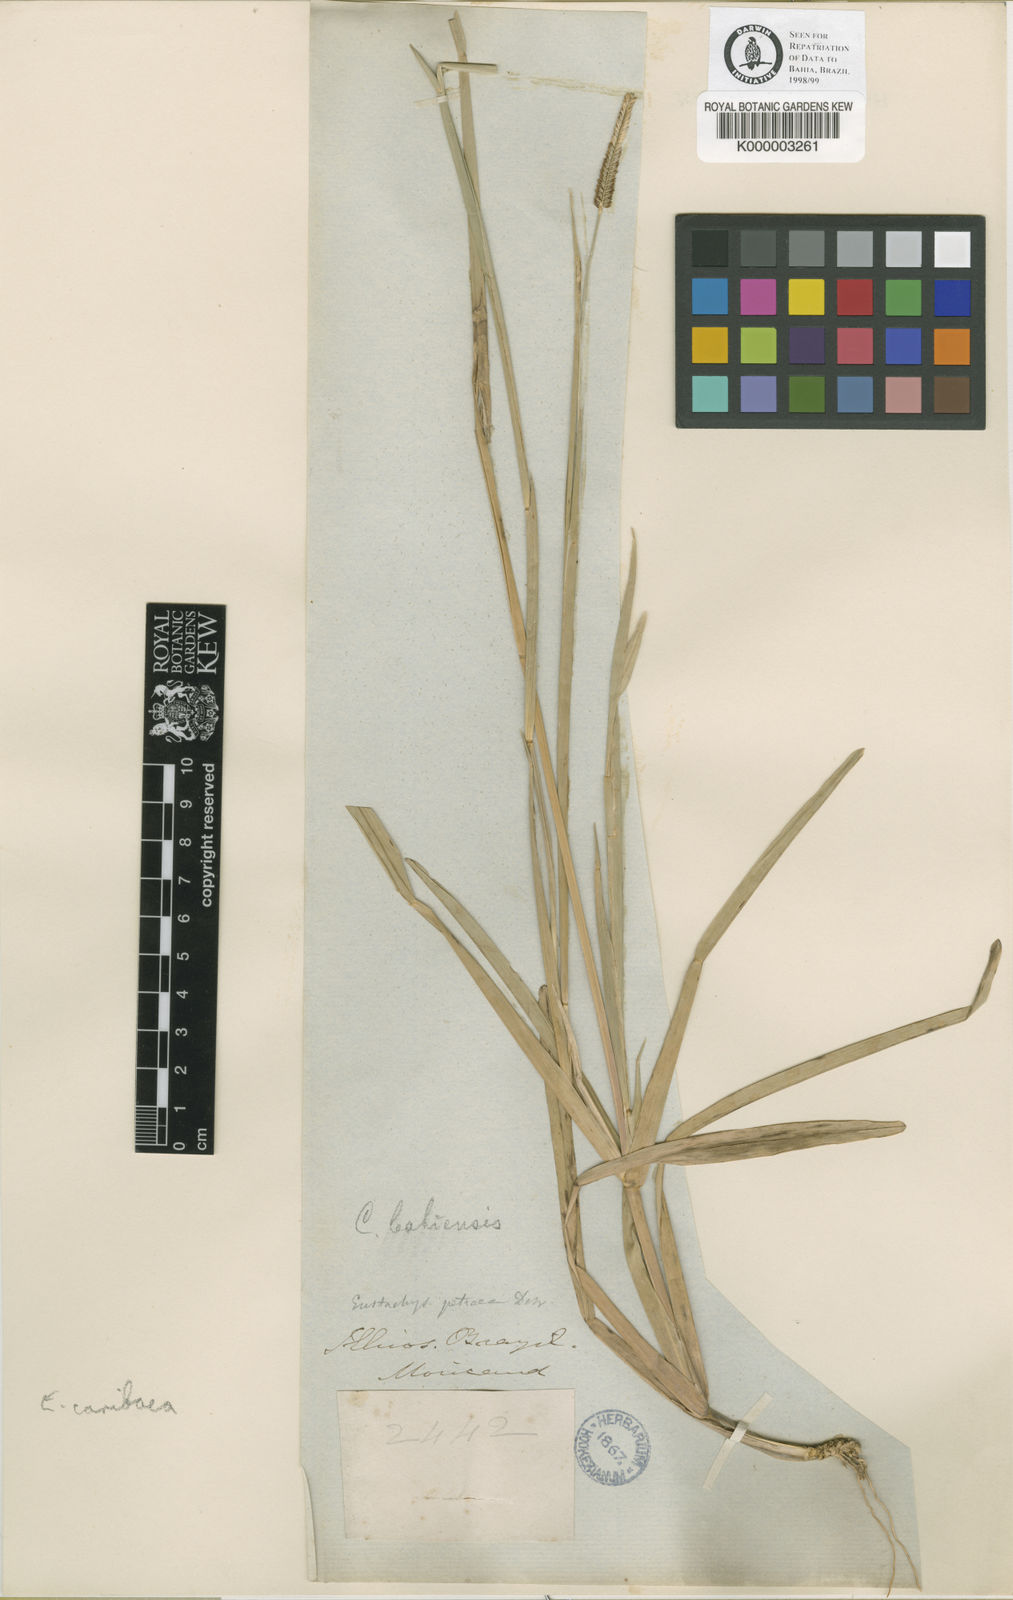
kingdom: Plantae
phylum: Tracheophyta
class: Liliopsida
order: Poales
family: Poaceae
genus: Eustachys
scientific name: Eustachys caribaea
